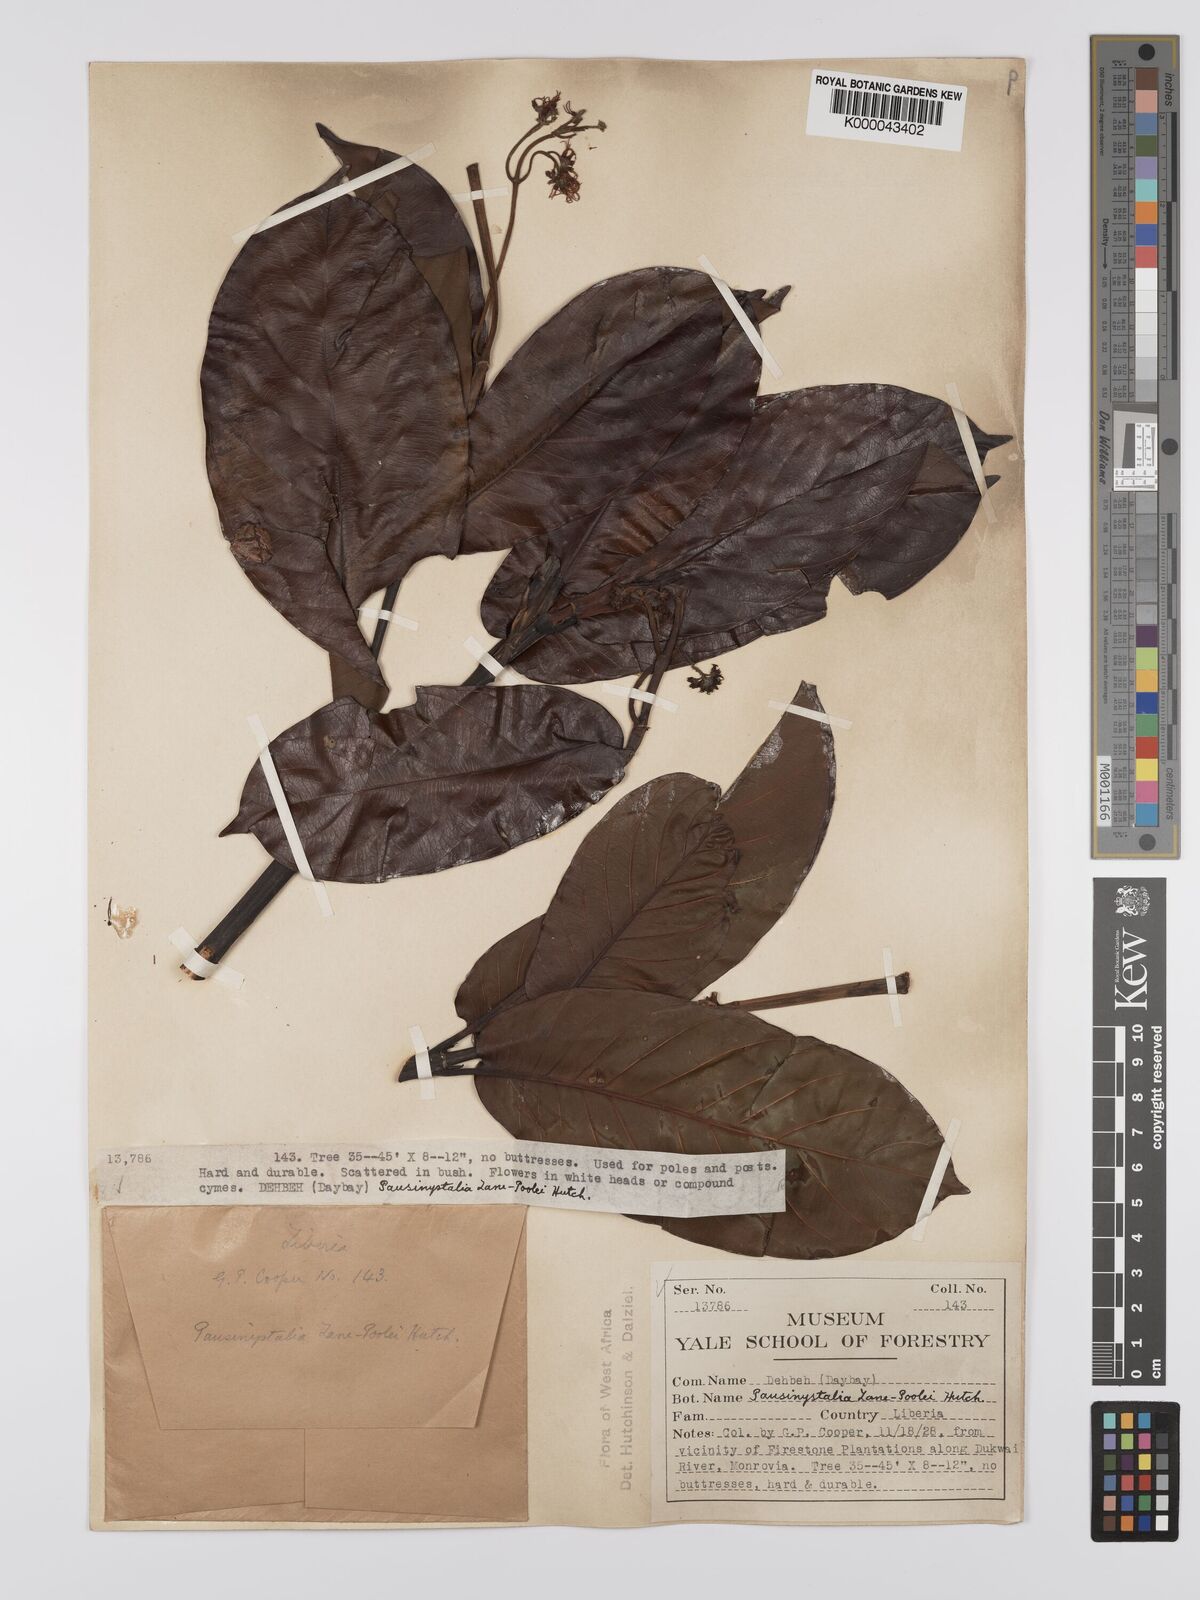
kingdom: Plantae
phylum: Tracheophyta
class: Magnoliopsida
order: Gentianales
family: Rubiaceae
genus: Corynanthe
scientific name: Corynanthe lane-poolei
